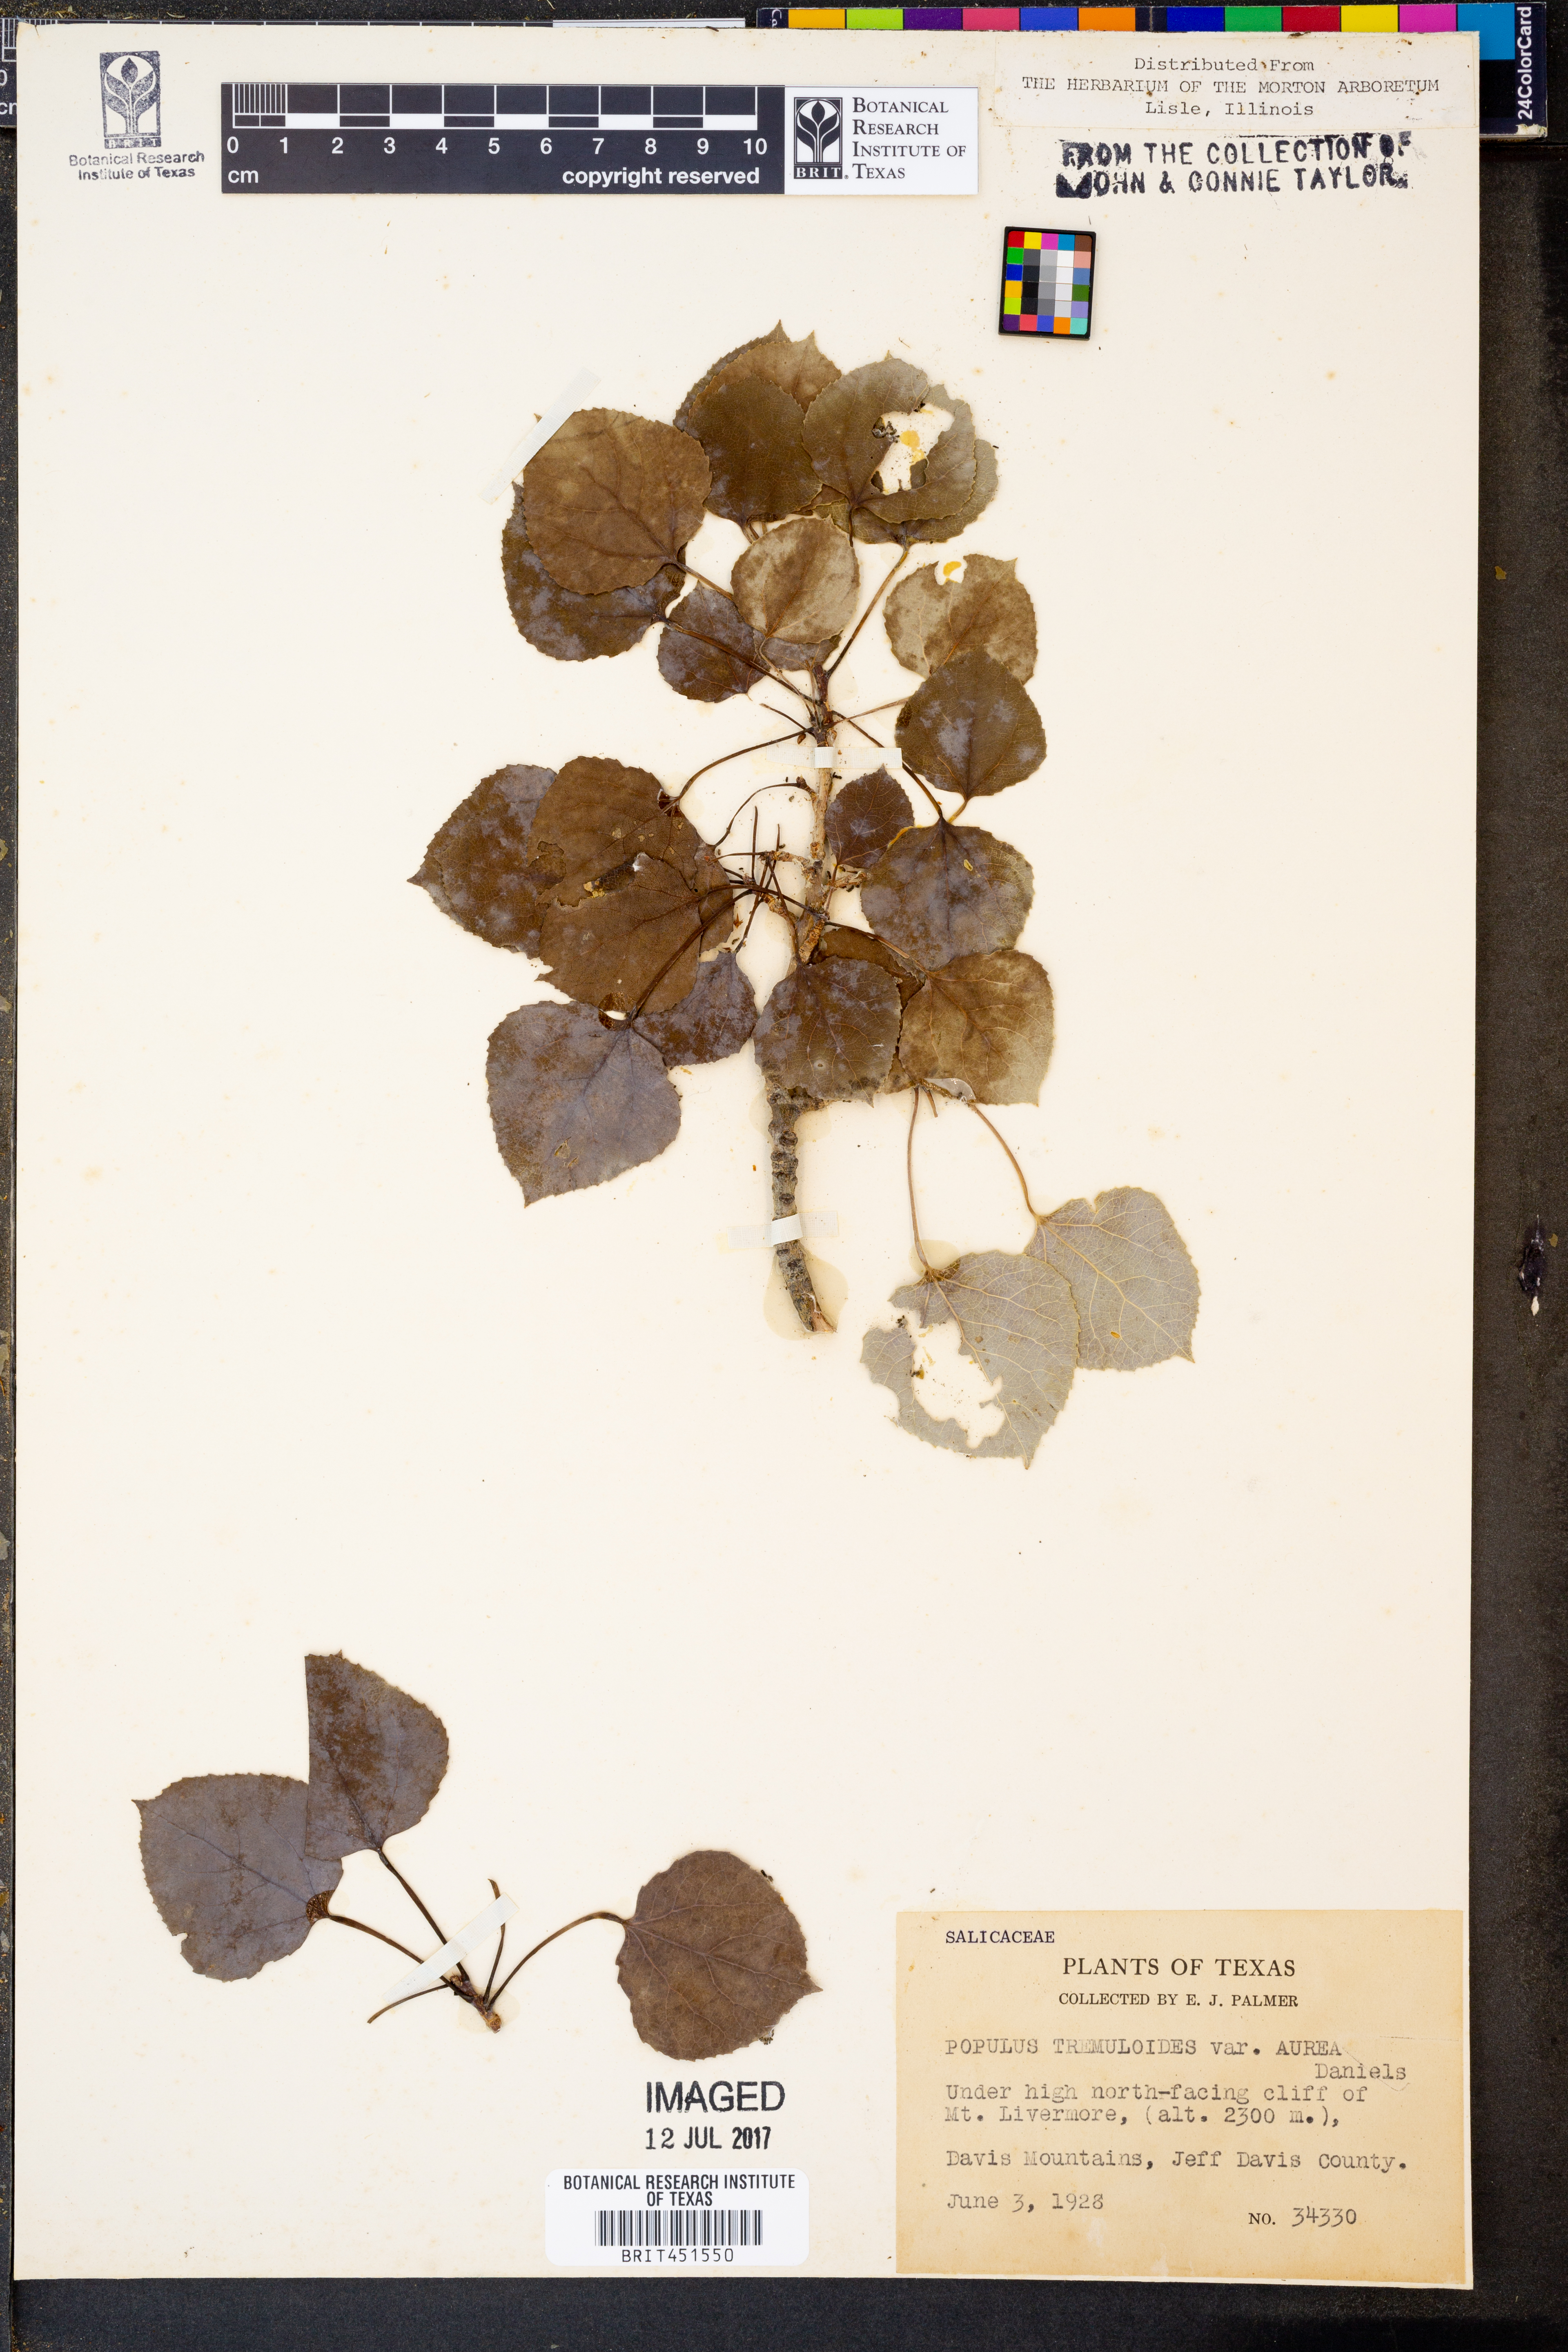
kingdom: Plantae
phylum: Tracheophyta
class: Magnoliopsida
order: Malpighiales
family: Salicaceae
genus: Populus
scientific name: Populus tremuloides
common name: Quaking aspen
